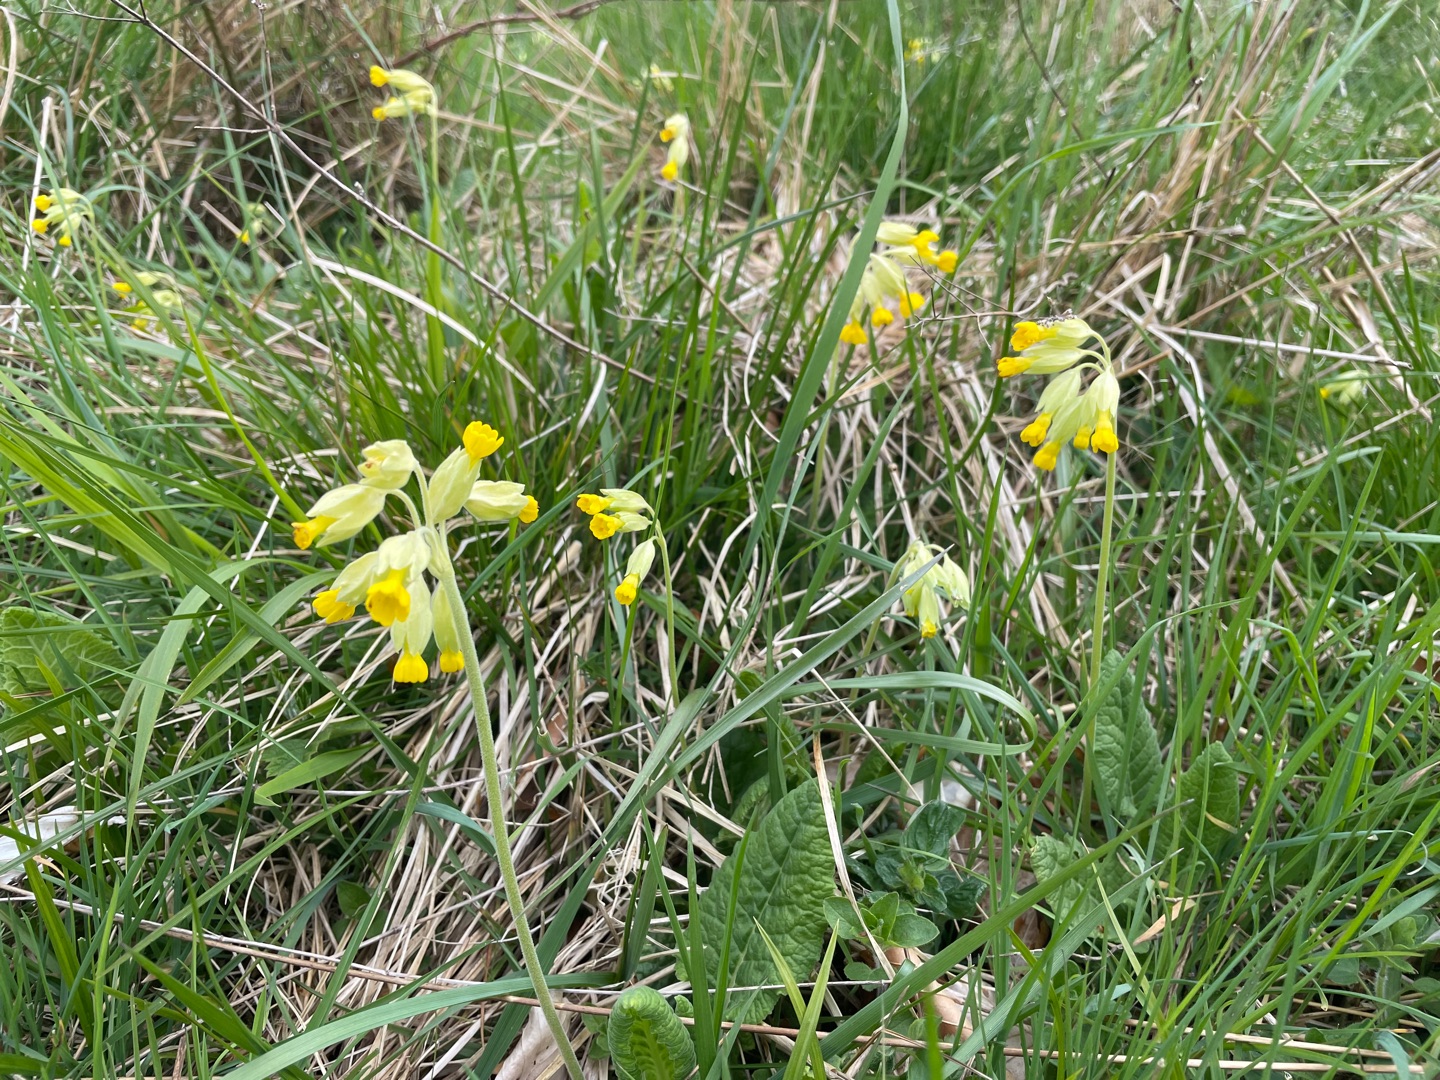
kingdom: Plantae
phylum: Tracheophyta
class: Magnoliopsida
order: Ericales
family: Primulaceae
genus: Primula
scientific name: Primula veris
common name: Hulkravet kodriver
